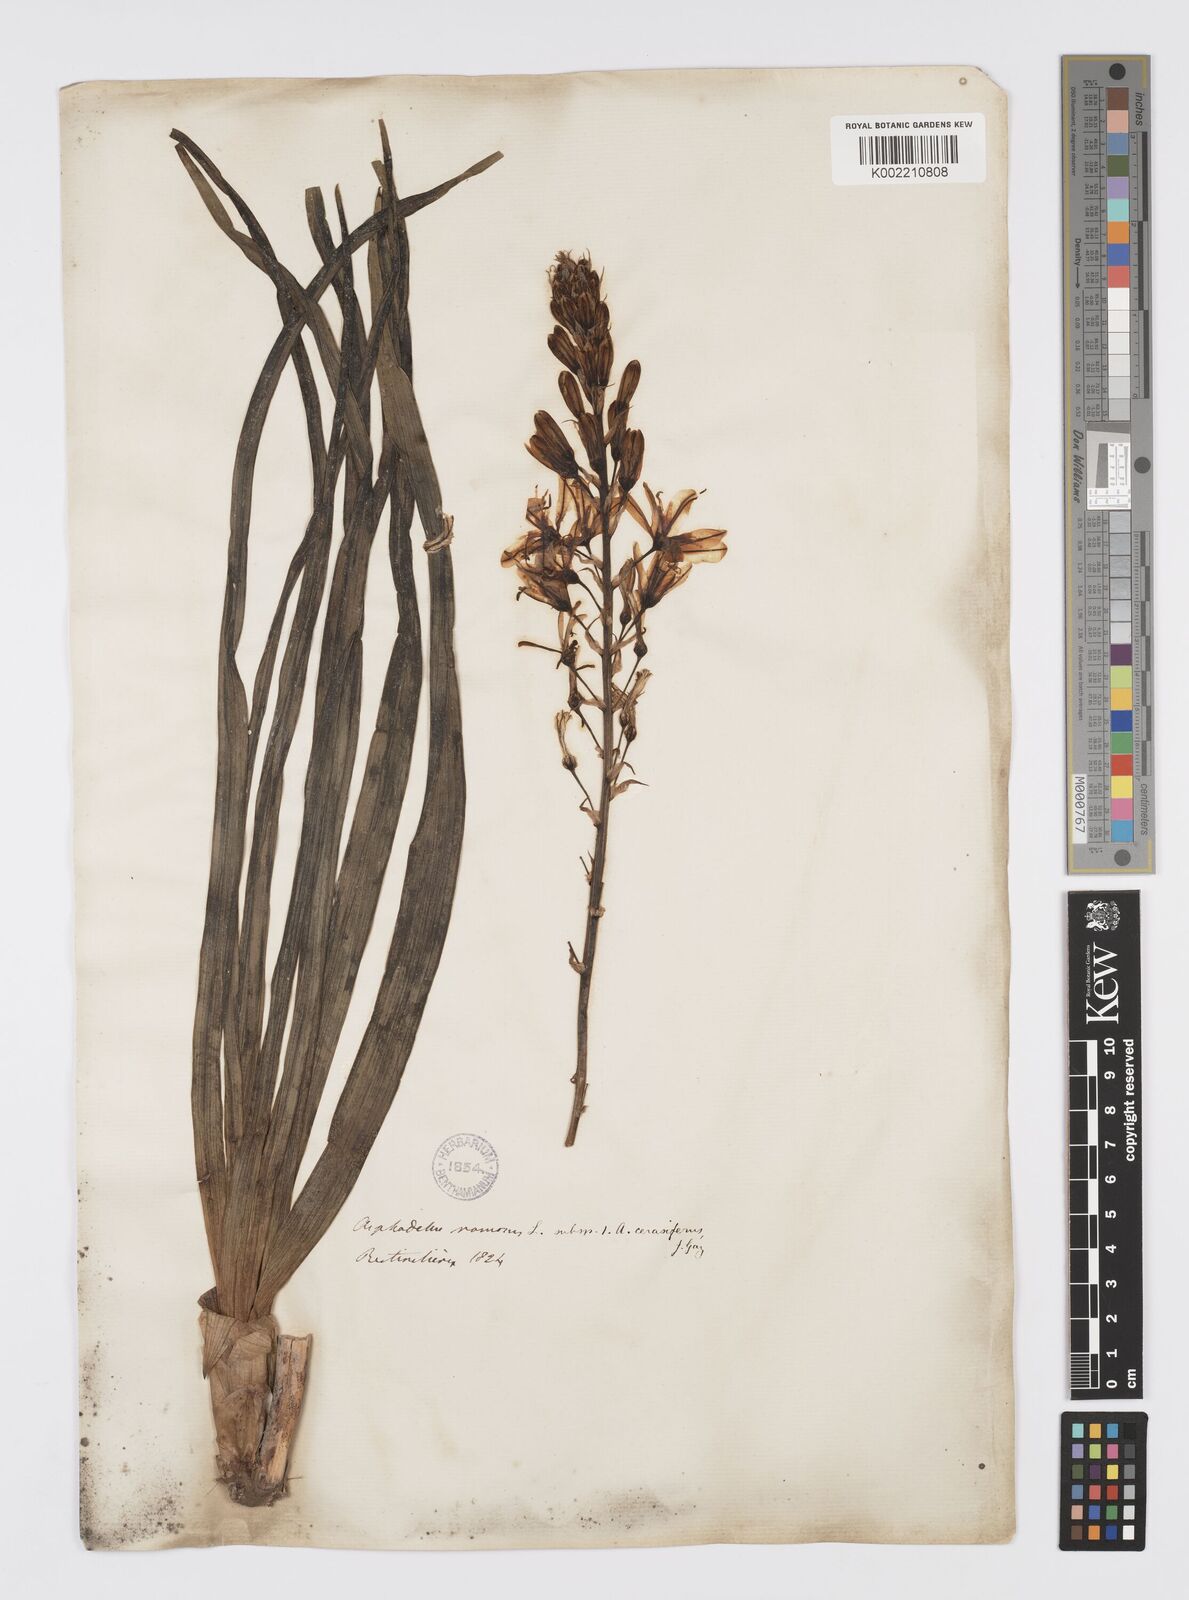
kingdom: Plantae
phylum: Tracheophyta
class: Liliopsida
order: Asparagales
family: Asphodelaceae
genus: Asphodelus
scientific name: Asphodelus cerasifer
